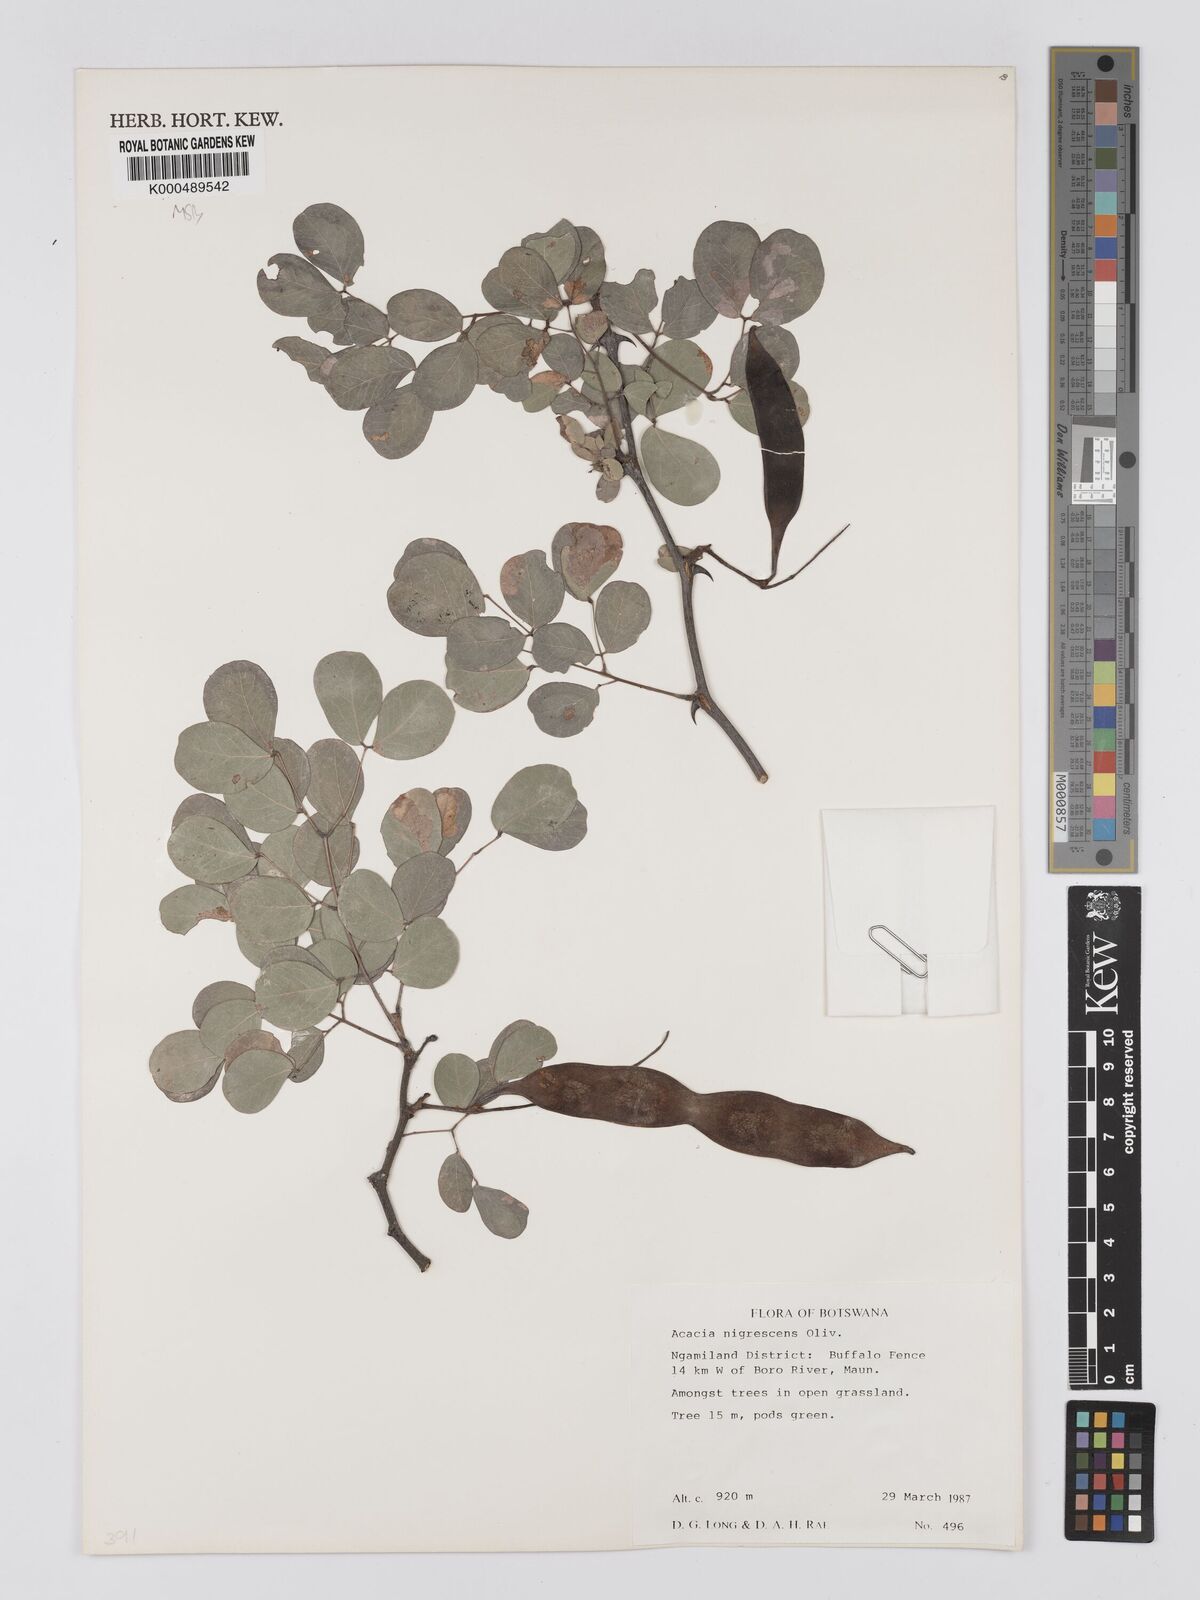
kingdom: Plantae
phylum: Tracheophyta
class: Magnoliopsida
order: Fabales
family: Fabaceae
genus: Senegalia
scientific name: Senegalia nigrescens
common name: Knobthorn
